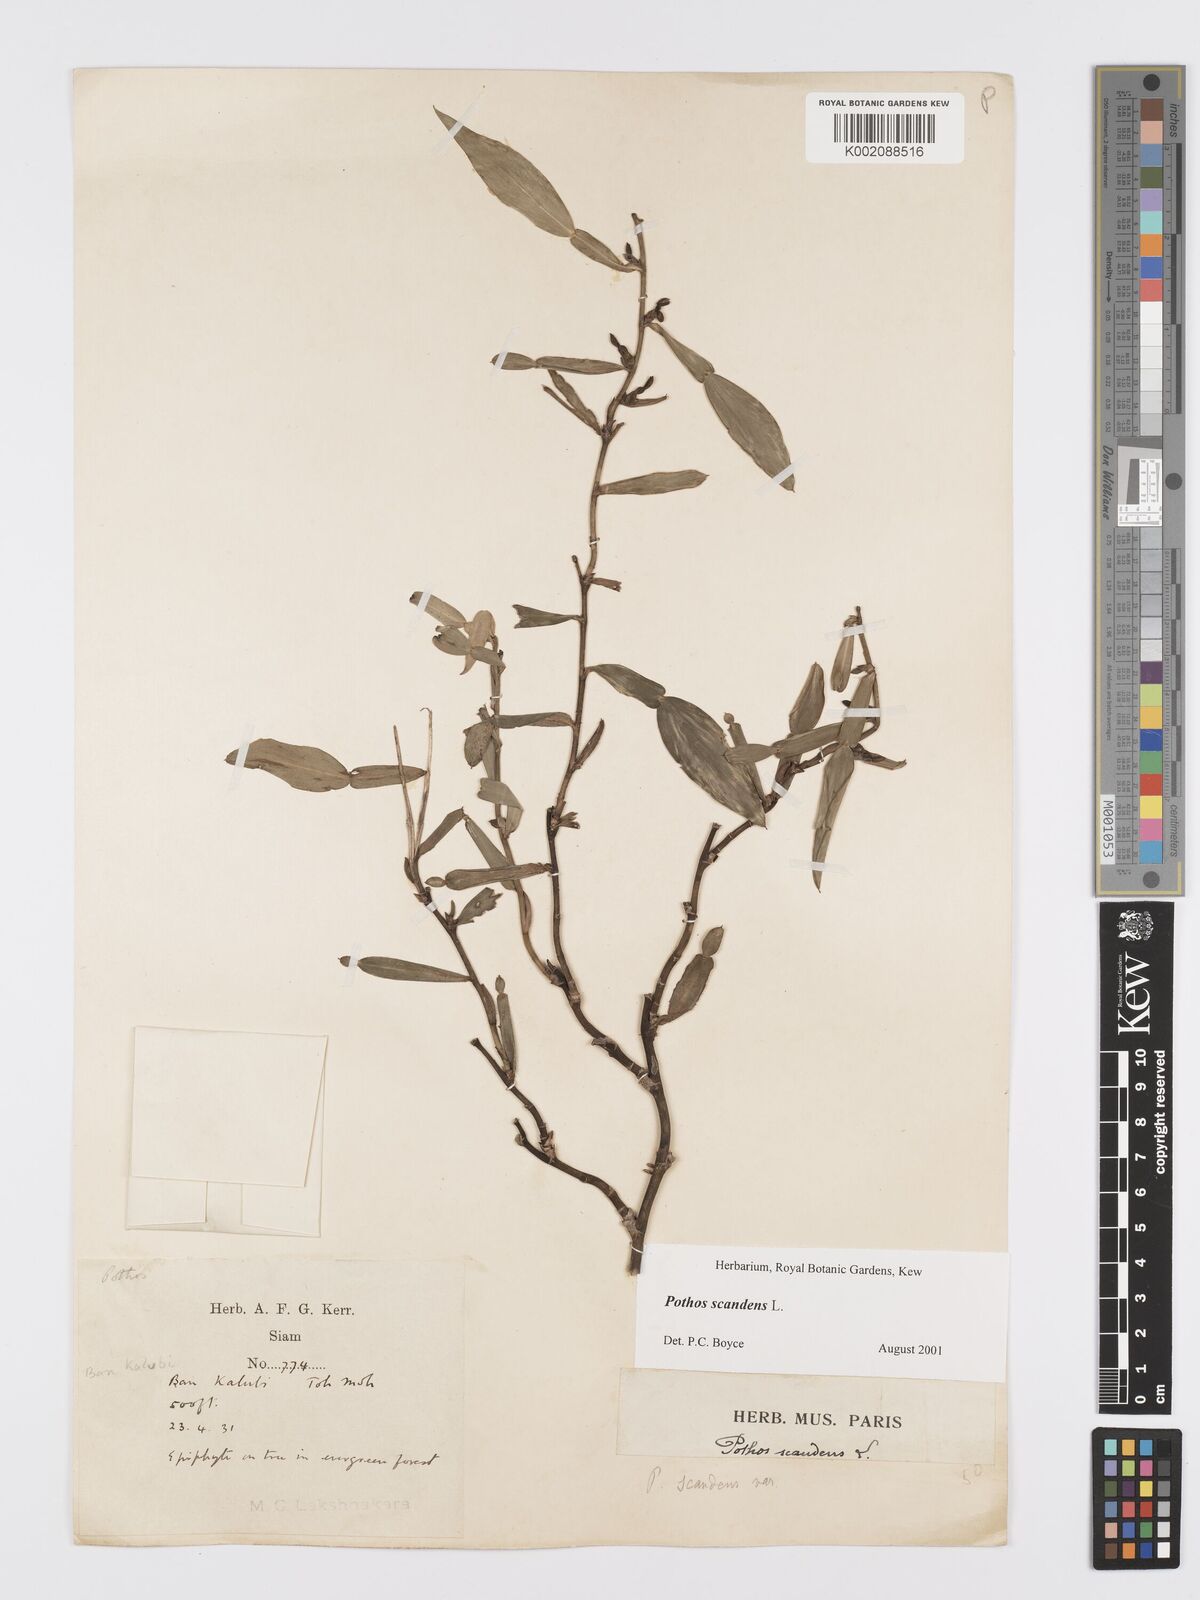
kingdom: Plantae
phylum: Tracheophyta
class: Liliopsida
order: Alismatales
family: Araceae
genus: Pothos
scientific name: Pothos scandens
